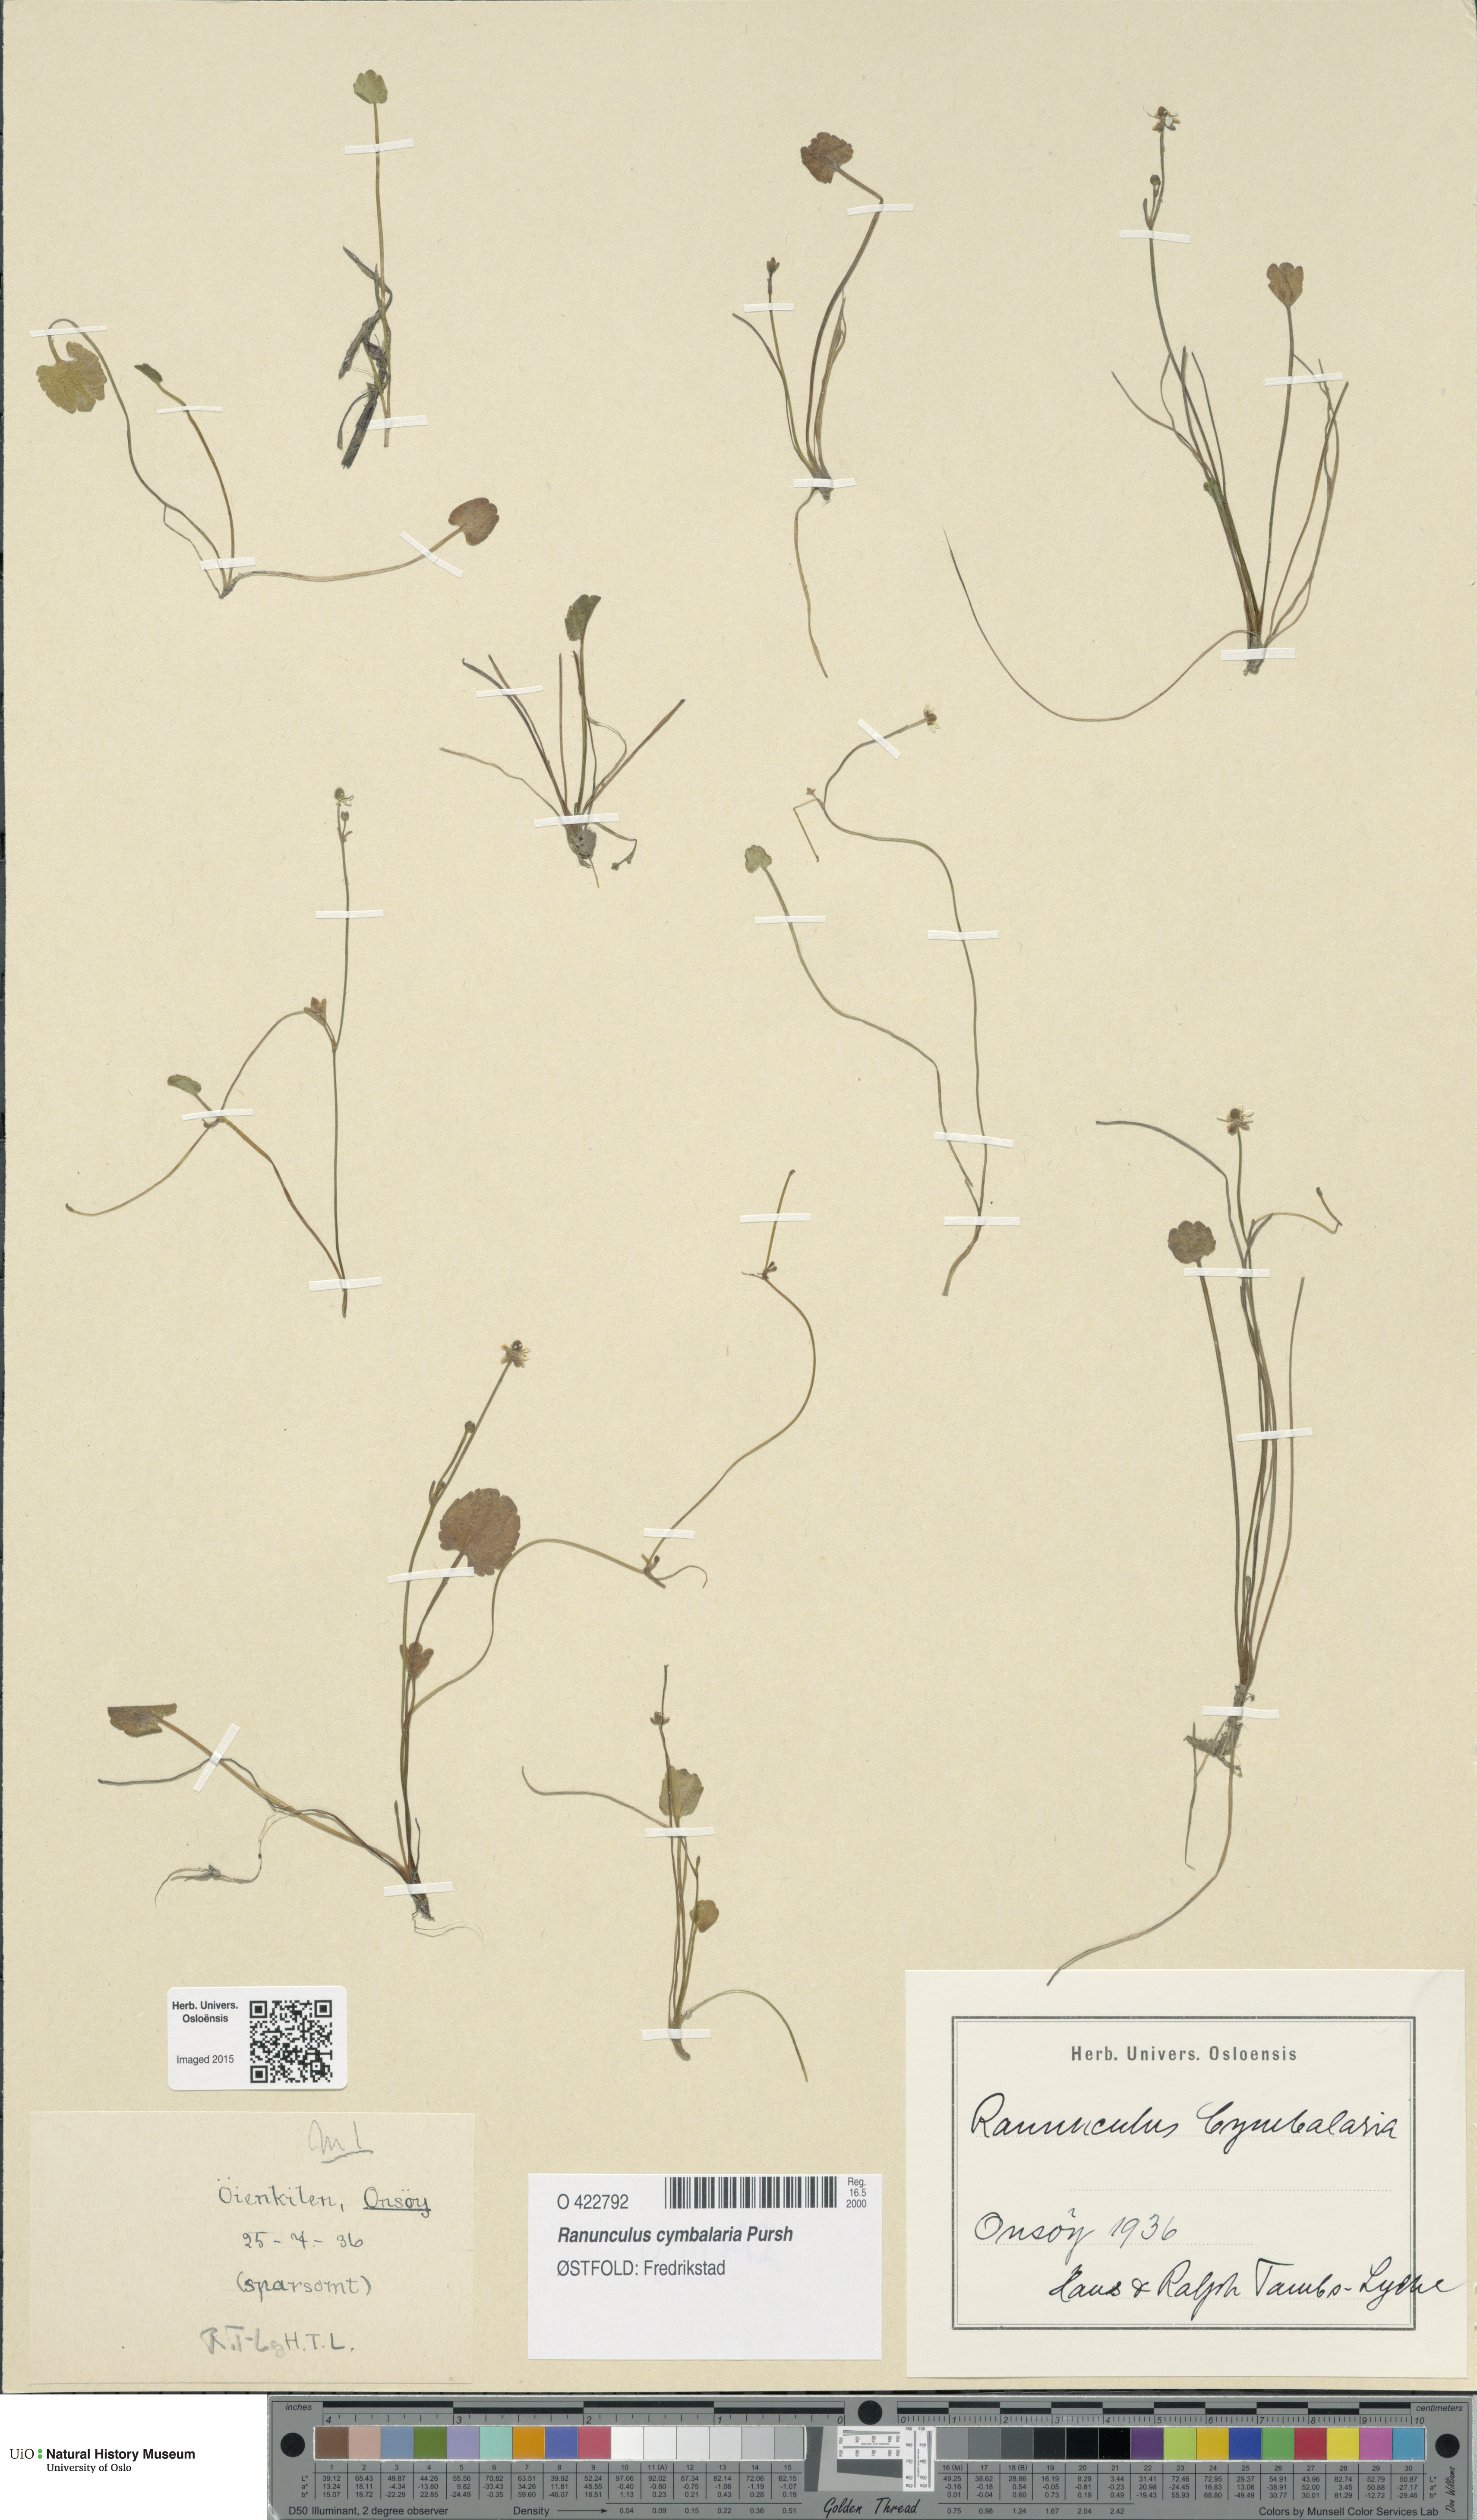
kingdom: Plantae
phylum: Tracheophyta
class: Magnoliopsida
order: Ranunculales
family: Ranunculaceae
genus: Halerpestes
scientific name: Halerpestes cymbalaria
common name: Seaside crowfoot
